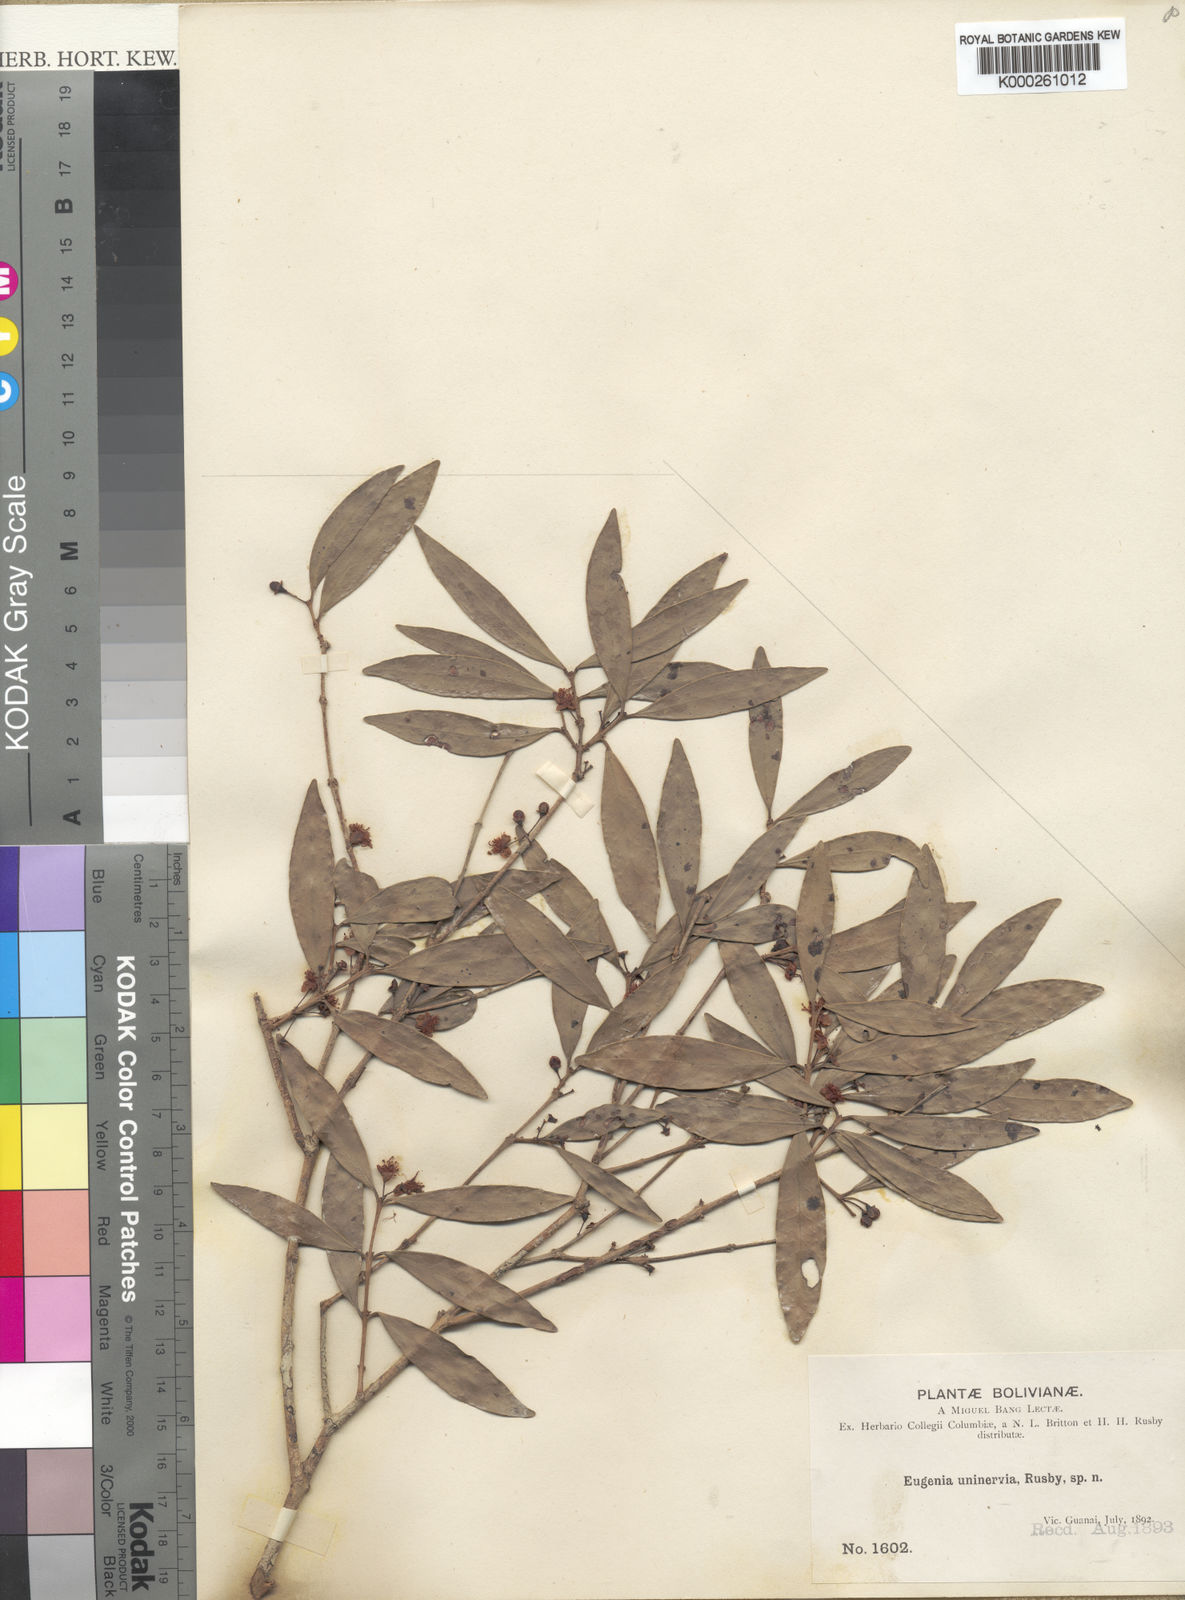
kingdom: Plantae
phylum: Tracheophyta
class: Magnoliopsida
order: Myrtales
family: Myrtaceae
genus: Eugenia
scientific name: Eugenia uninervia
